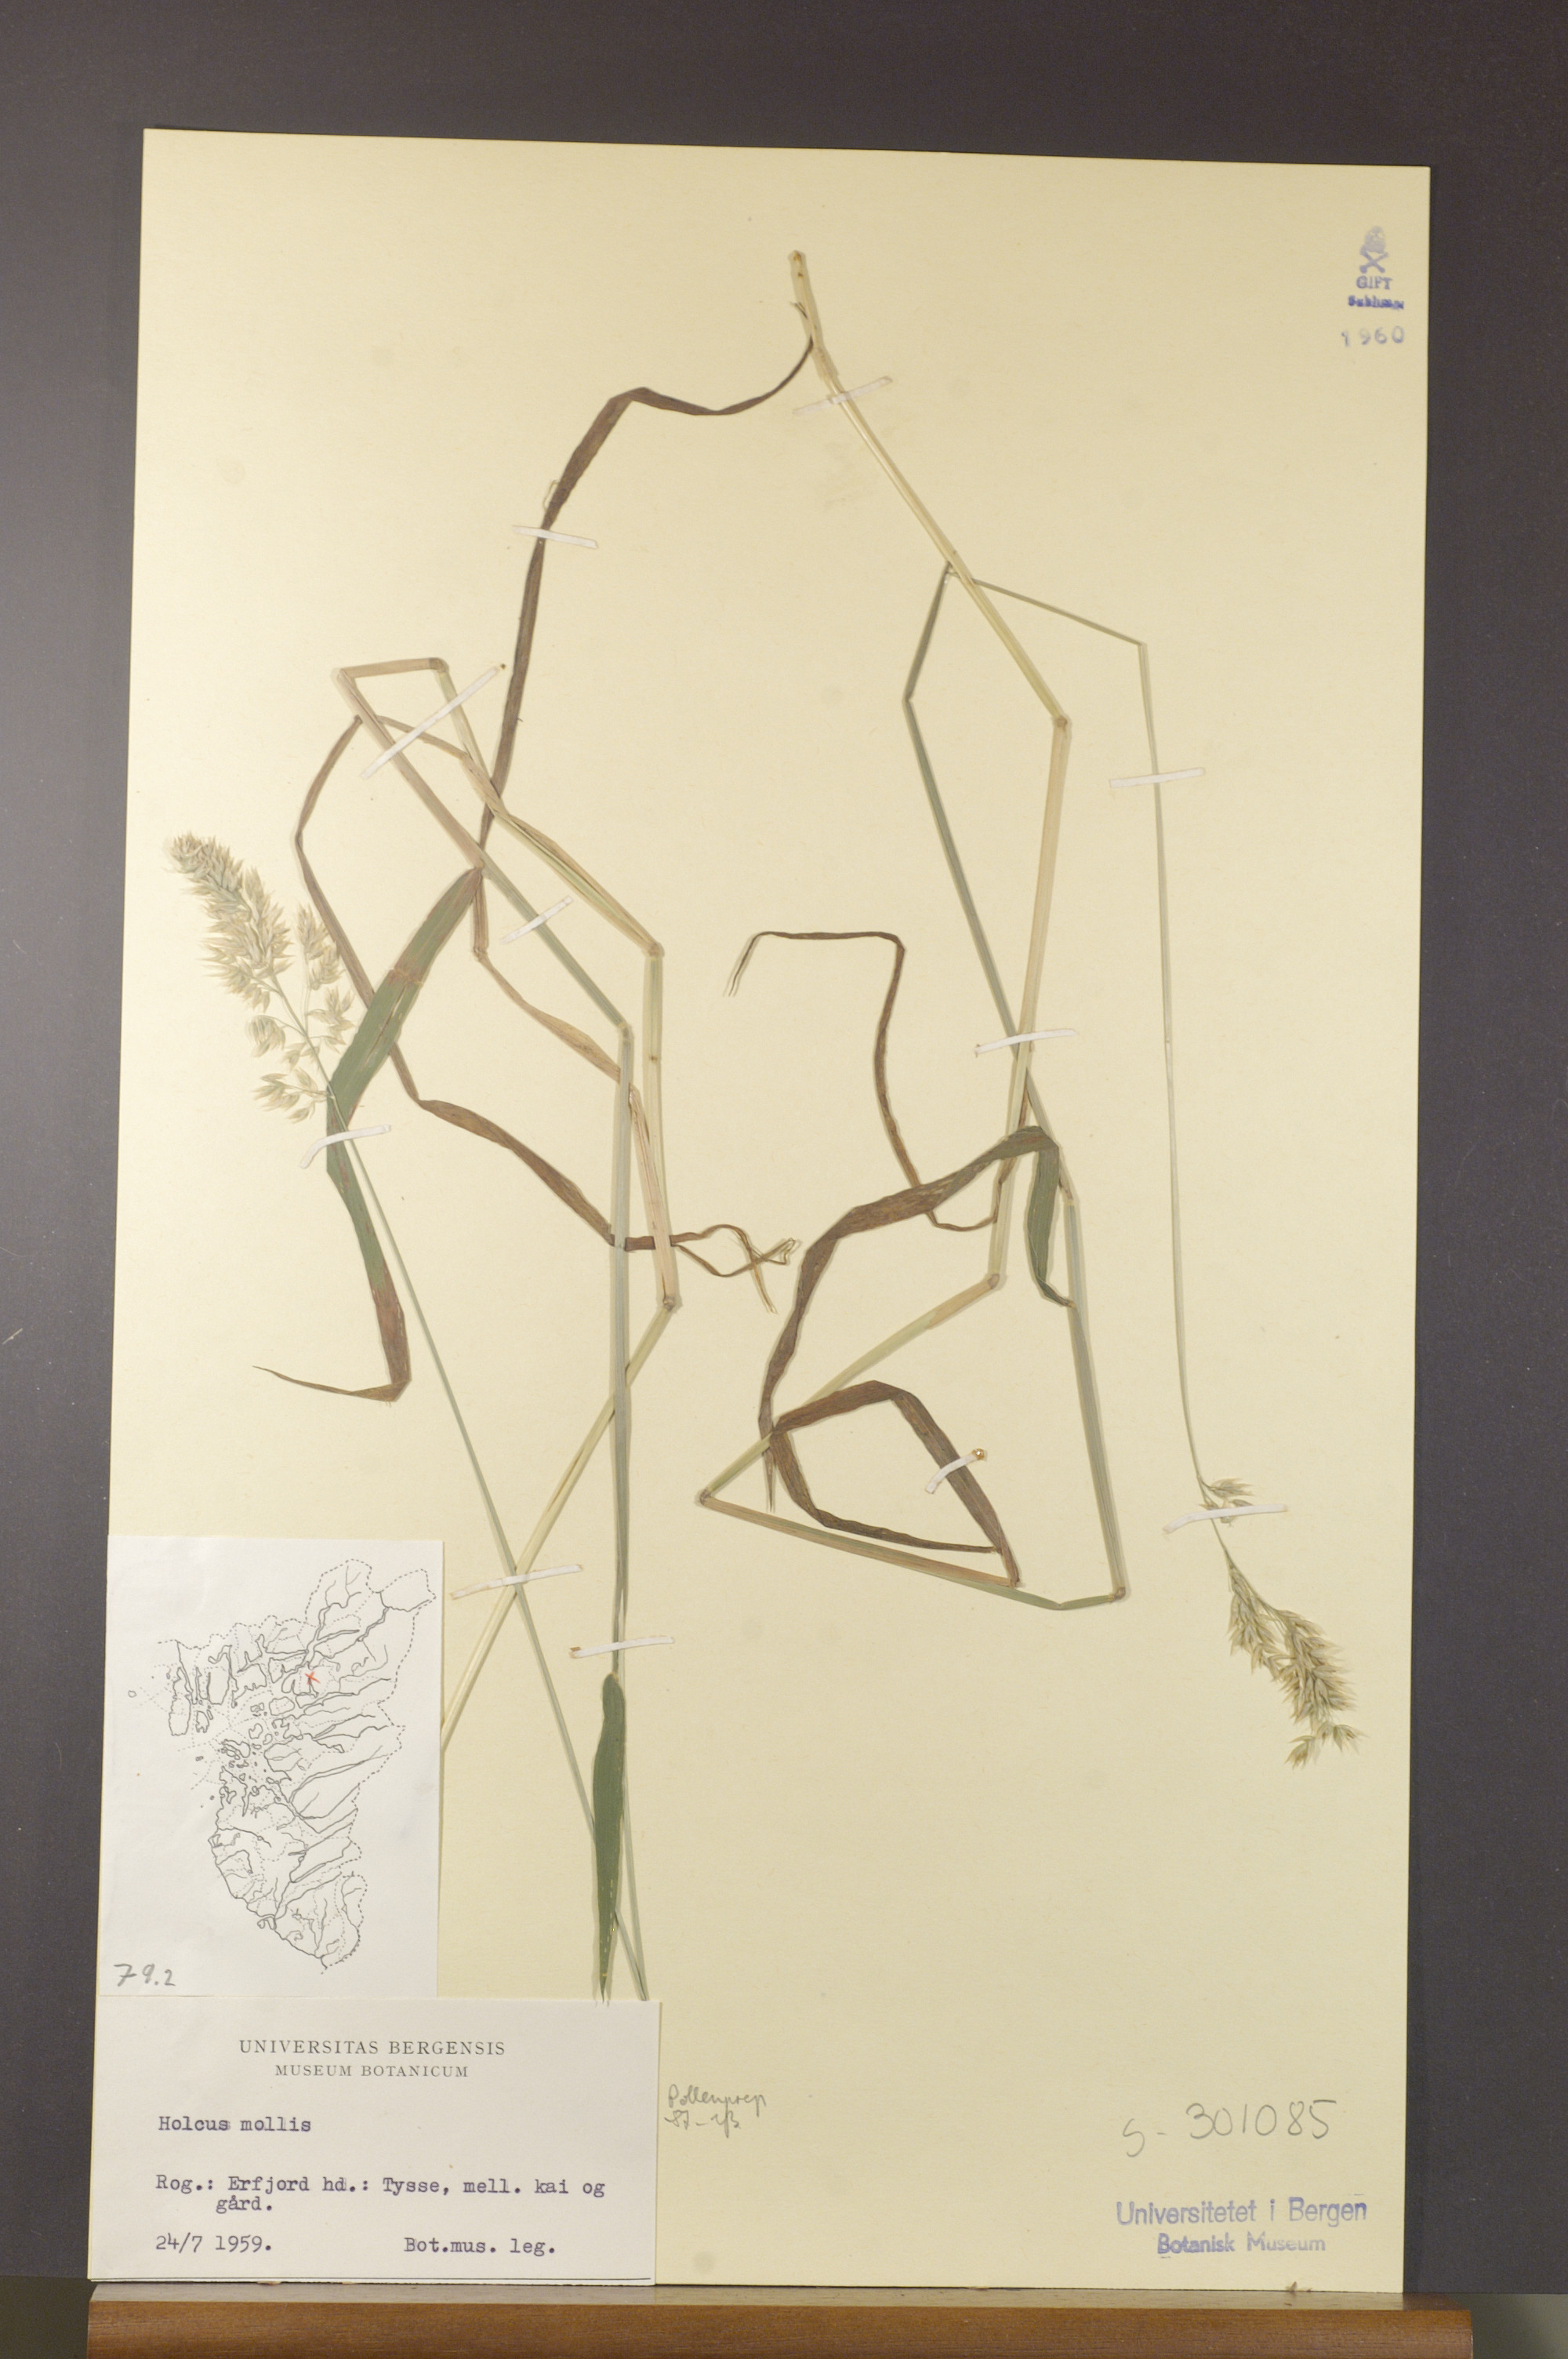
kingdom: Plantae
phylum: Tracheophyta
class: Liliopsida
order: Poales
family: Poaceae
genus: Holcus
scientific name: Holcus mollis
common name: Creeping velvetgrass
